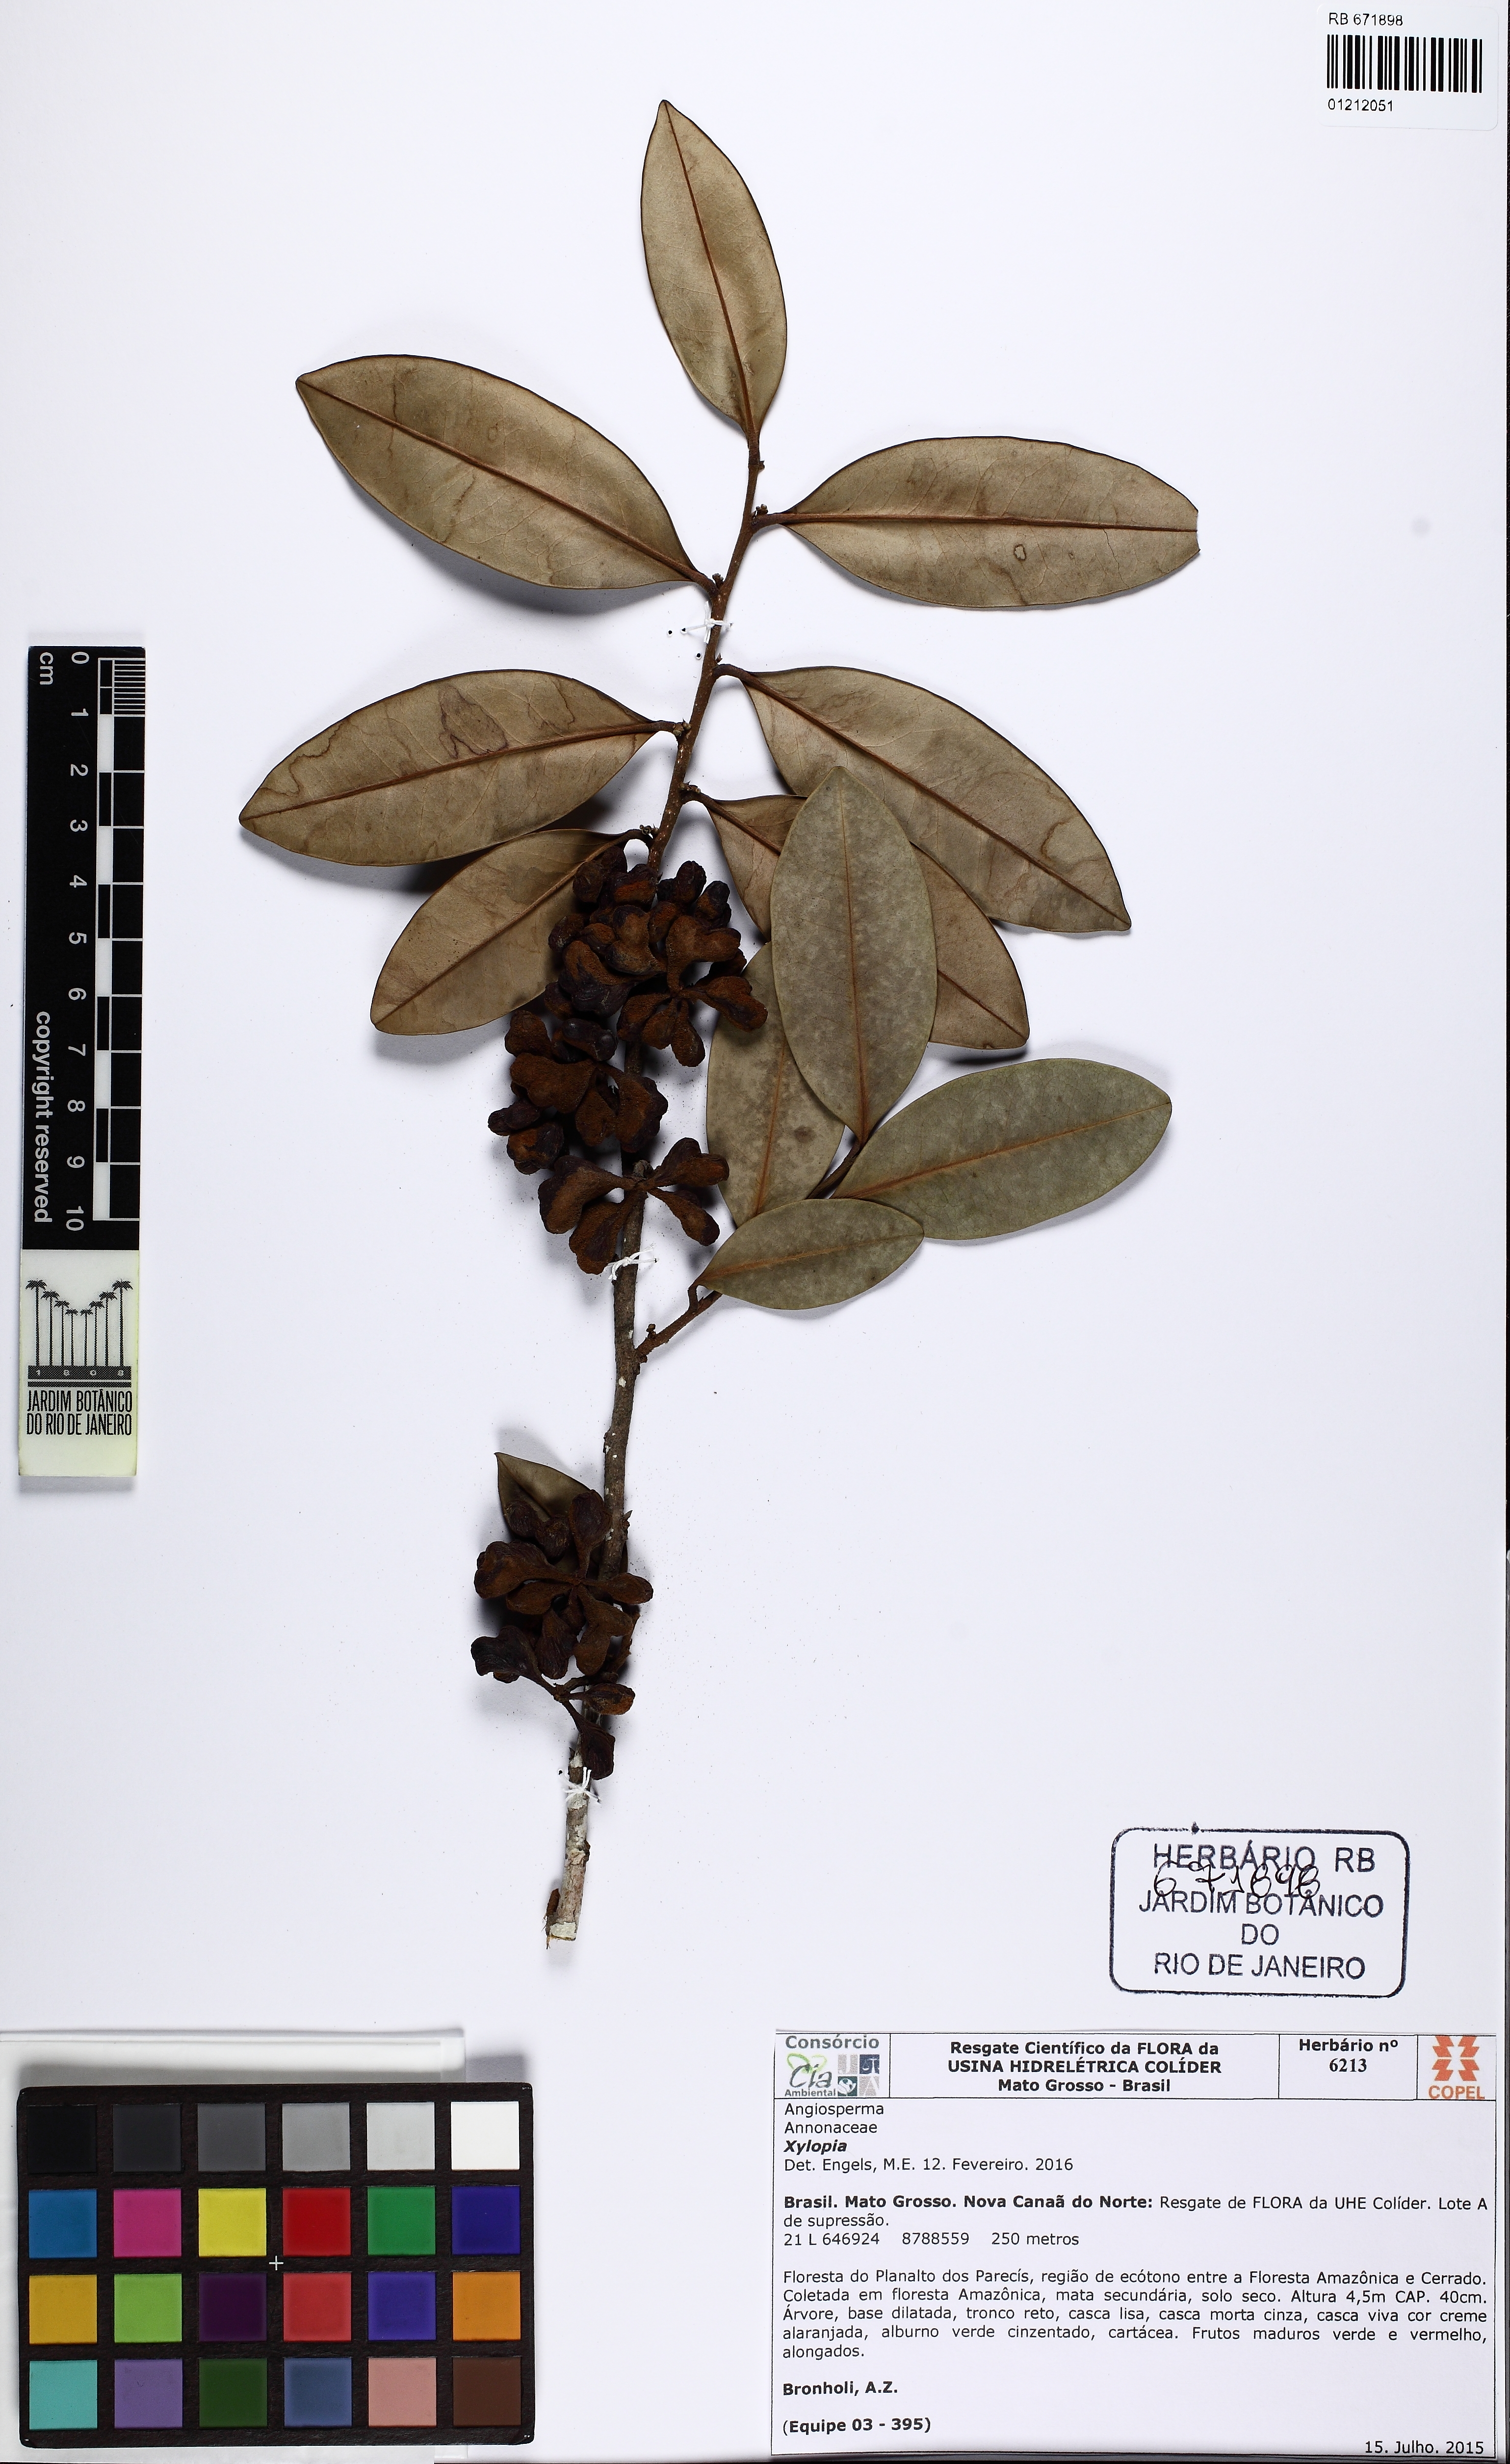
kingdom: Plantae
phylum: Tracheophyta
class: Magnoliopsida
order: Magnoliales
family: Annonaceae
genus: Xylopia
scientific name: Xylopia
